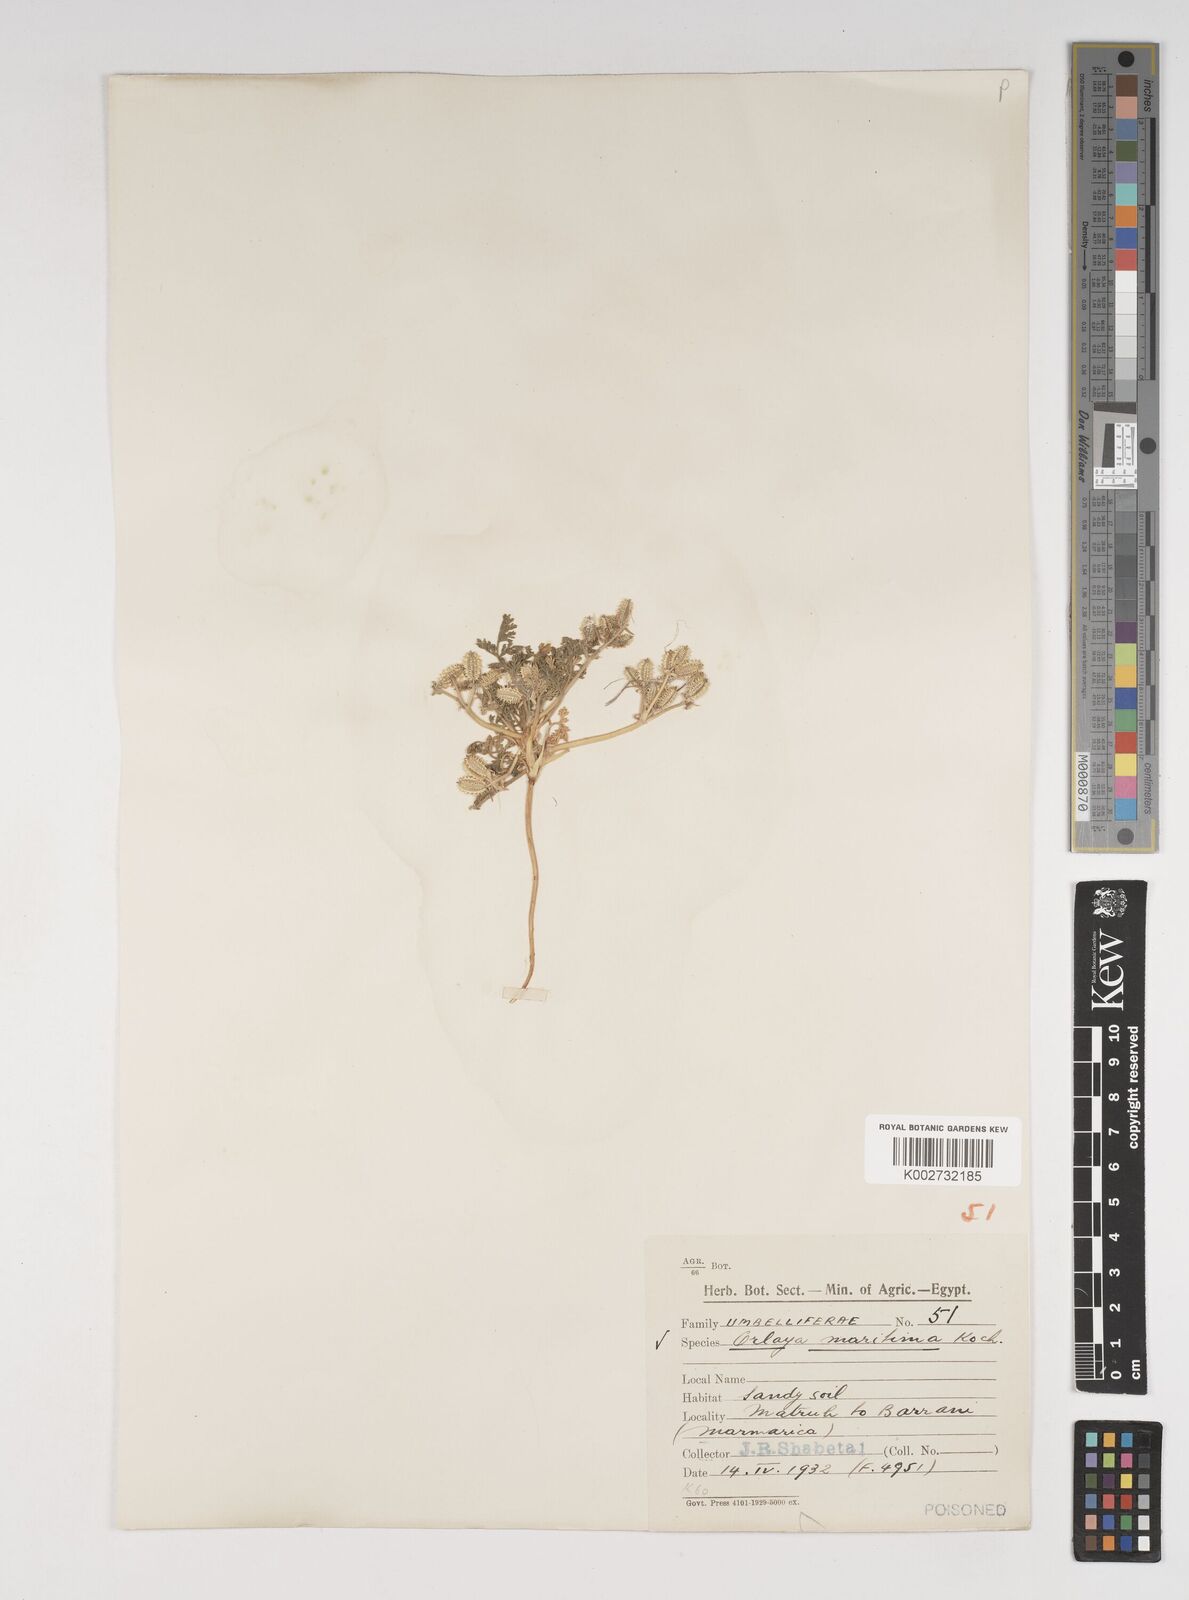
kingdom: Plantae
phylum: Tracheophyta
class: Magnoliopsida
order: Apiales
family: Apiaceae
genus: Daucus
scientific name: Daucus pumilus
